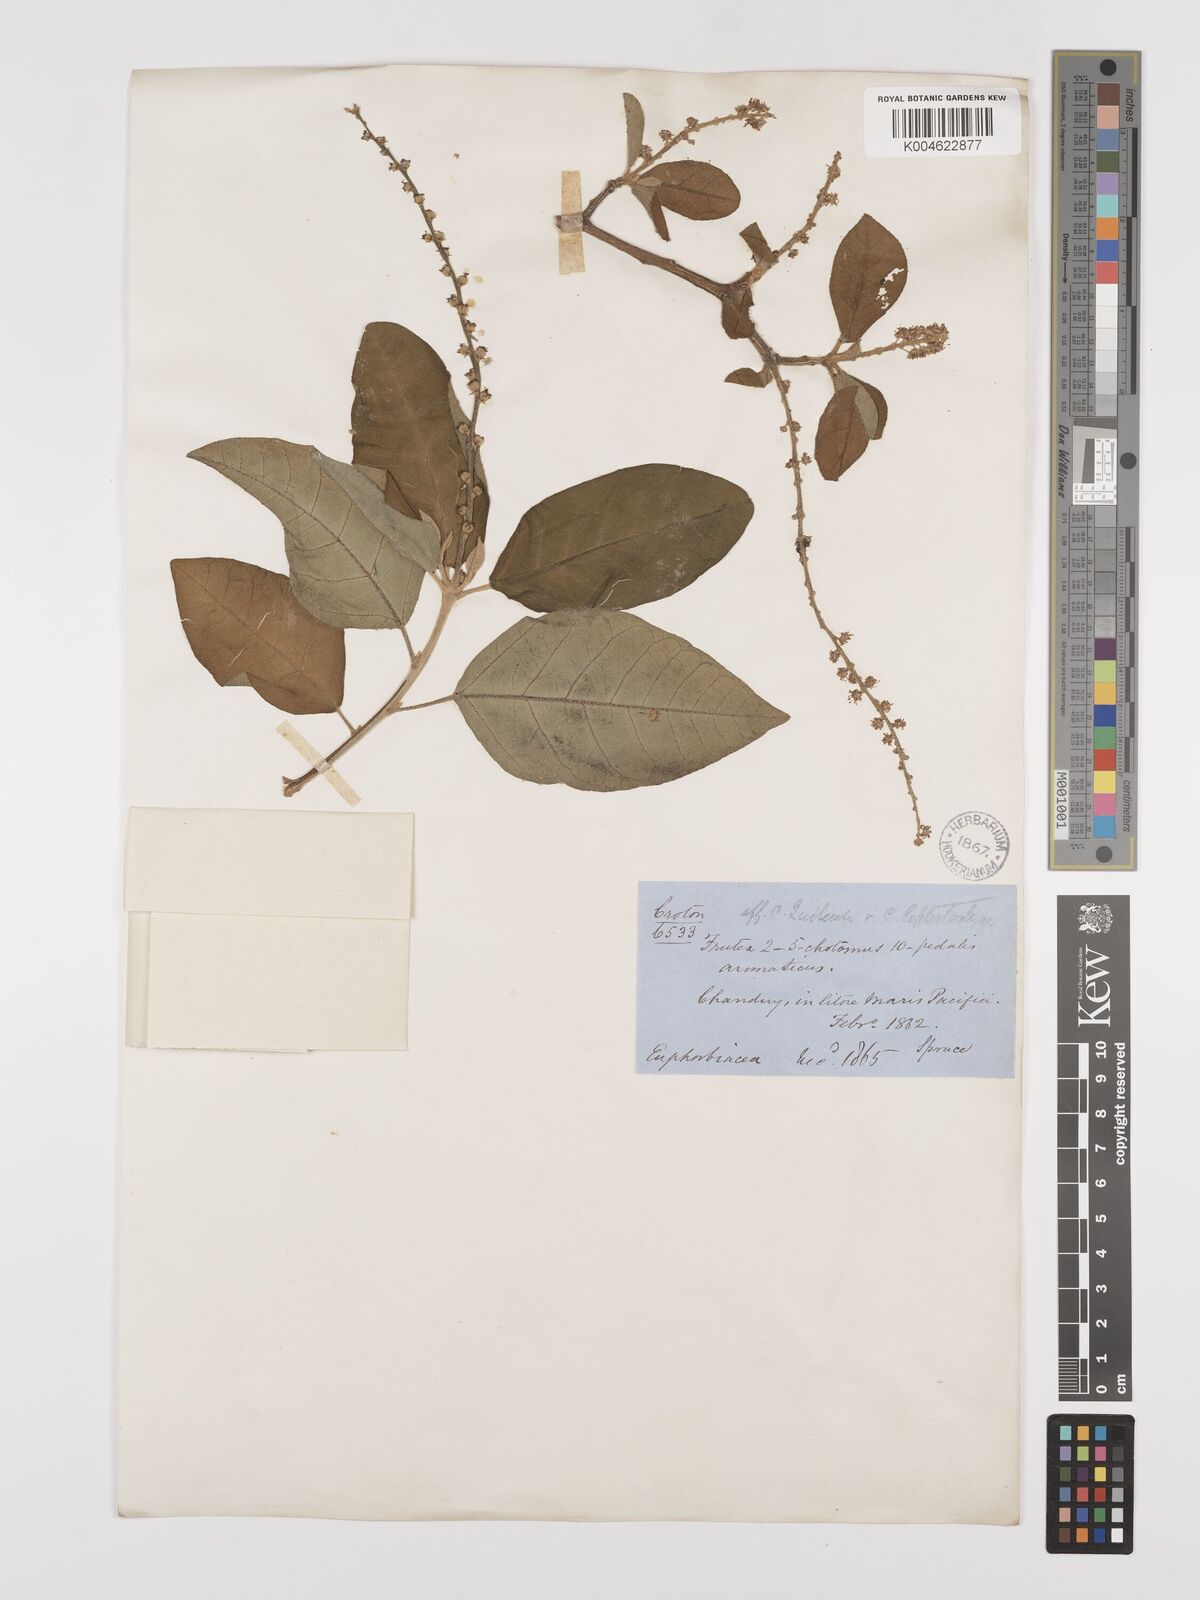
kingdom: Plantae
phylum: Tracheophyta
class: Magnoliopsida
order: Malpighiales
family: Euphorbiaceae
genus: Croton
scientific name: Croton alnifolius
